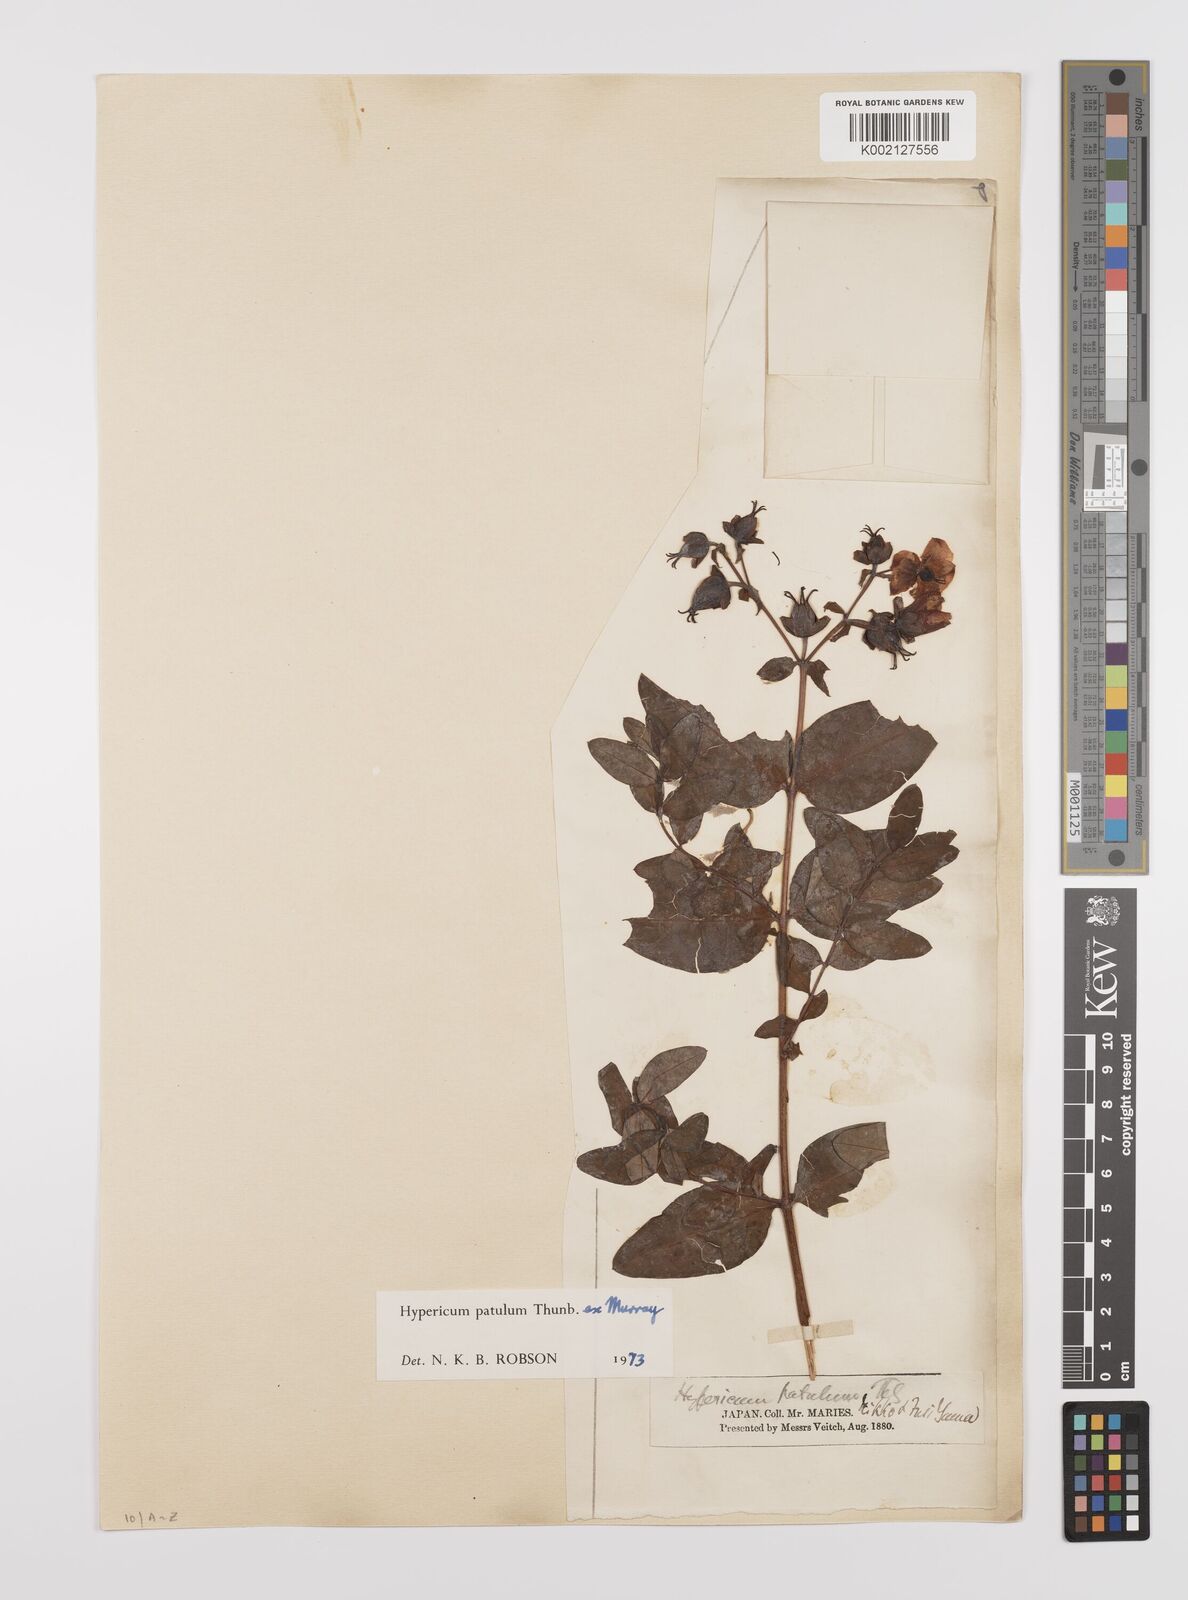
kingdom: Plantae
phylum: Tracheophyta
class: Magnoliopsida
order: Malpighiales
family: Hypericaceae
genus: Hypericum
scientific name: Hypericum patulum
